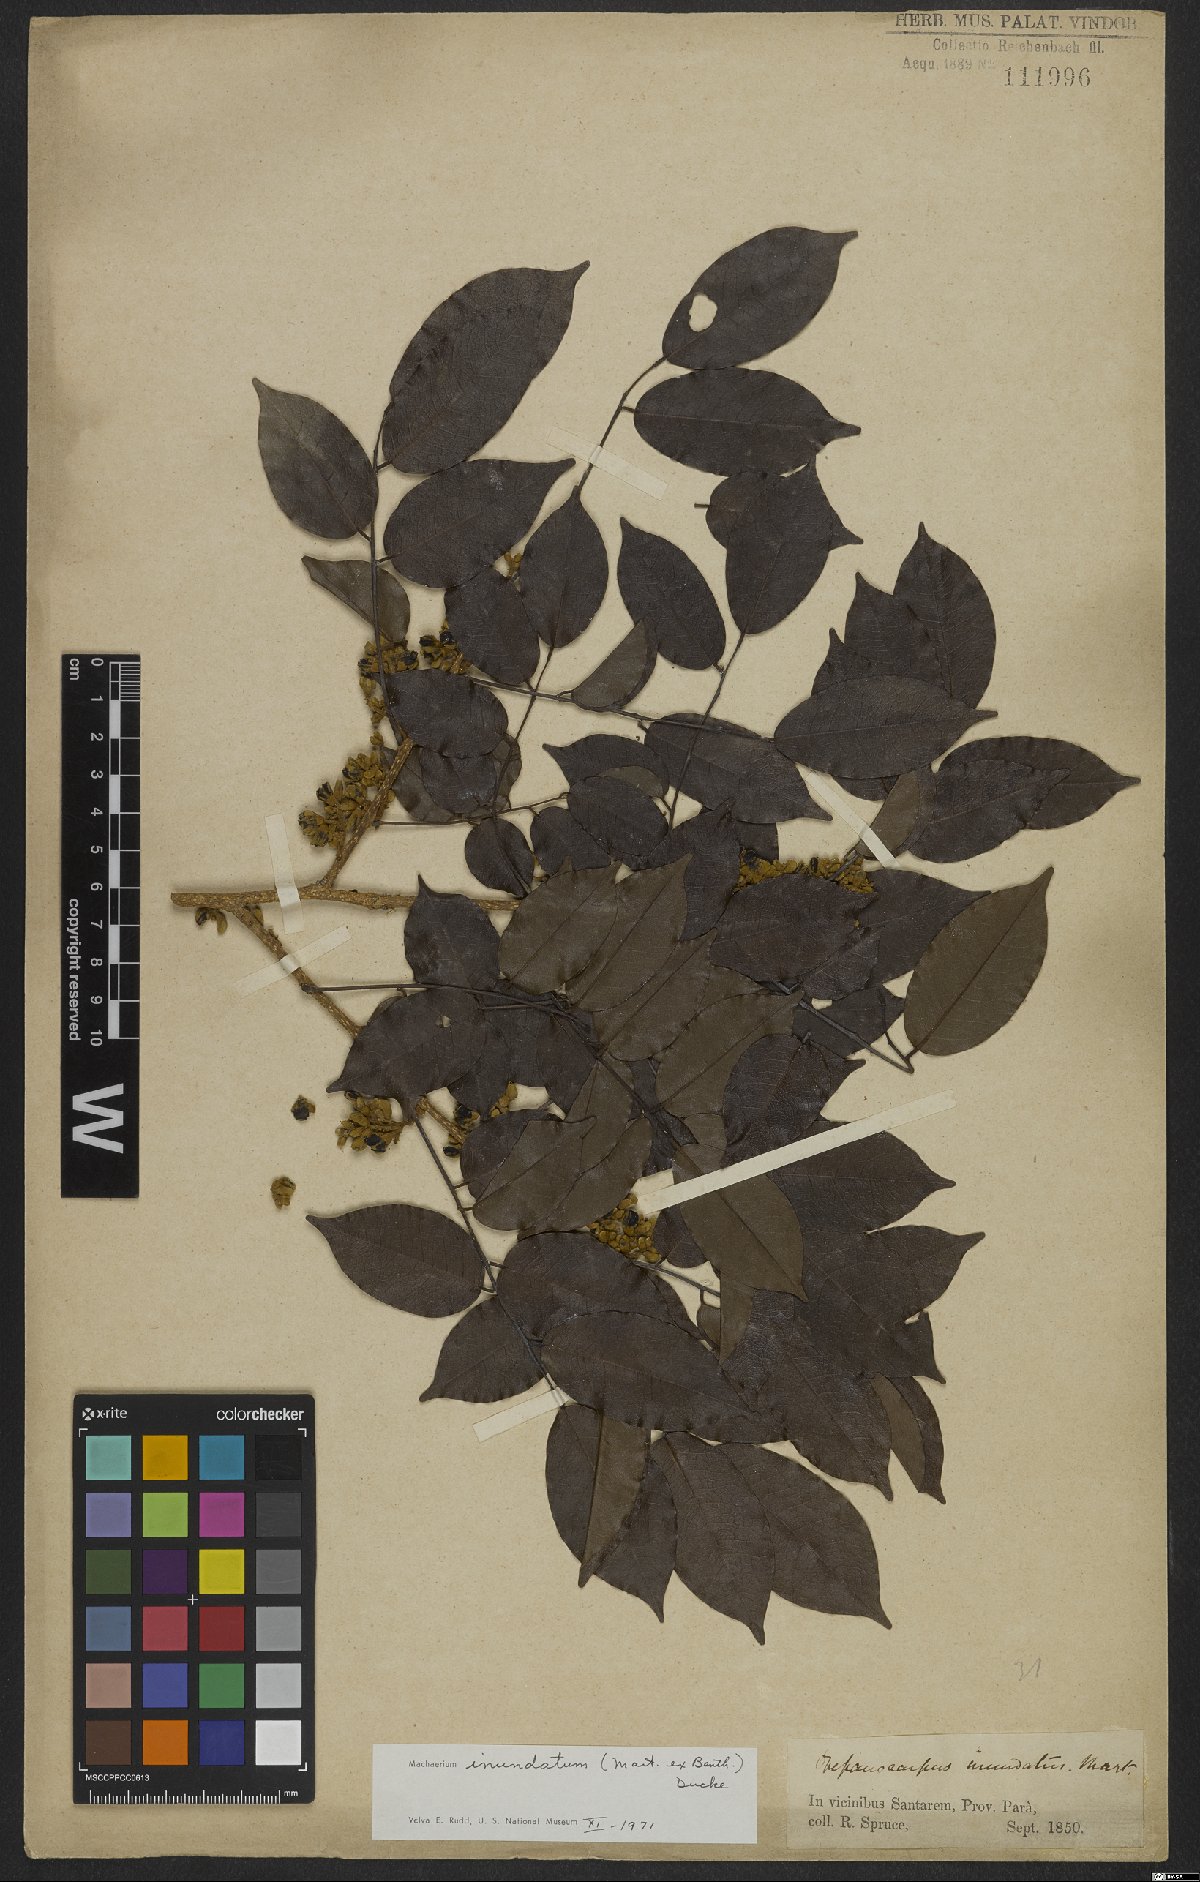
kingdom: Plantae
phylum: Tracheophyta
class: Magnoliopsida
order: Fabales
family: Fabaceae
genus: Machaerium
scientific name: Machaerium inundatum
